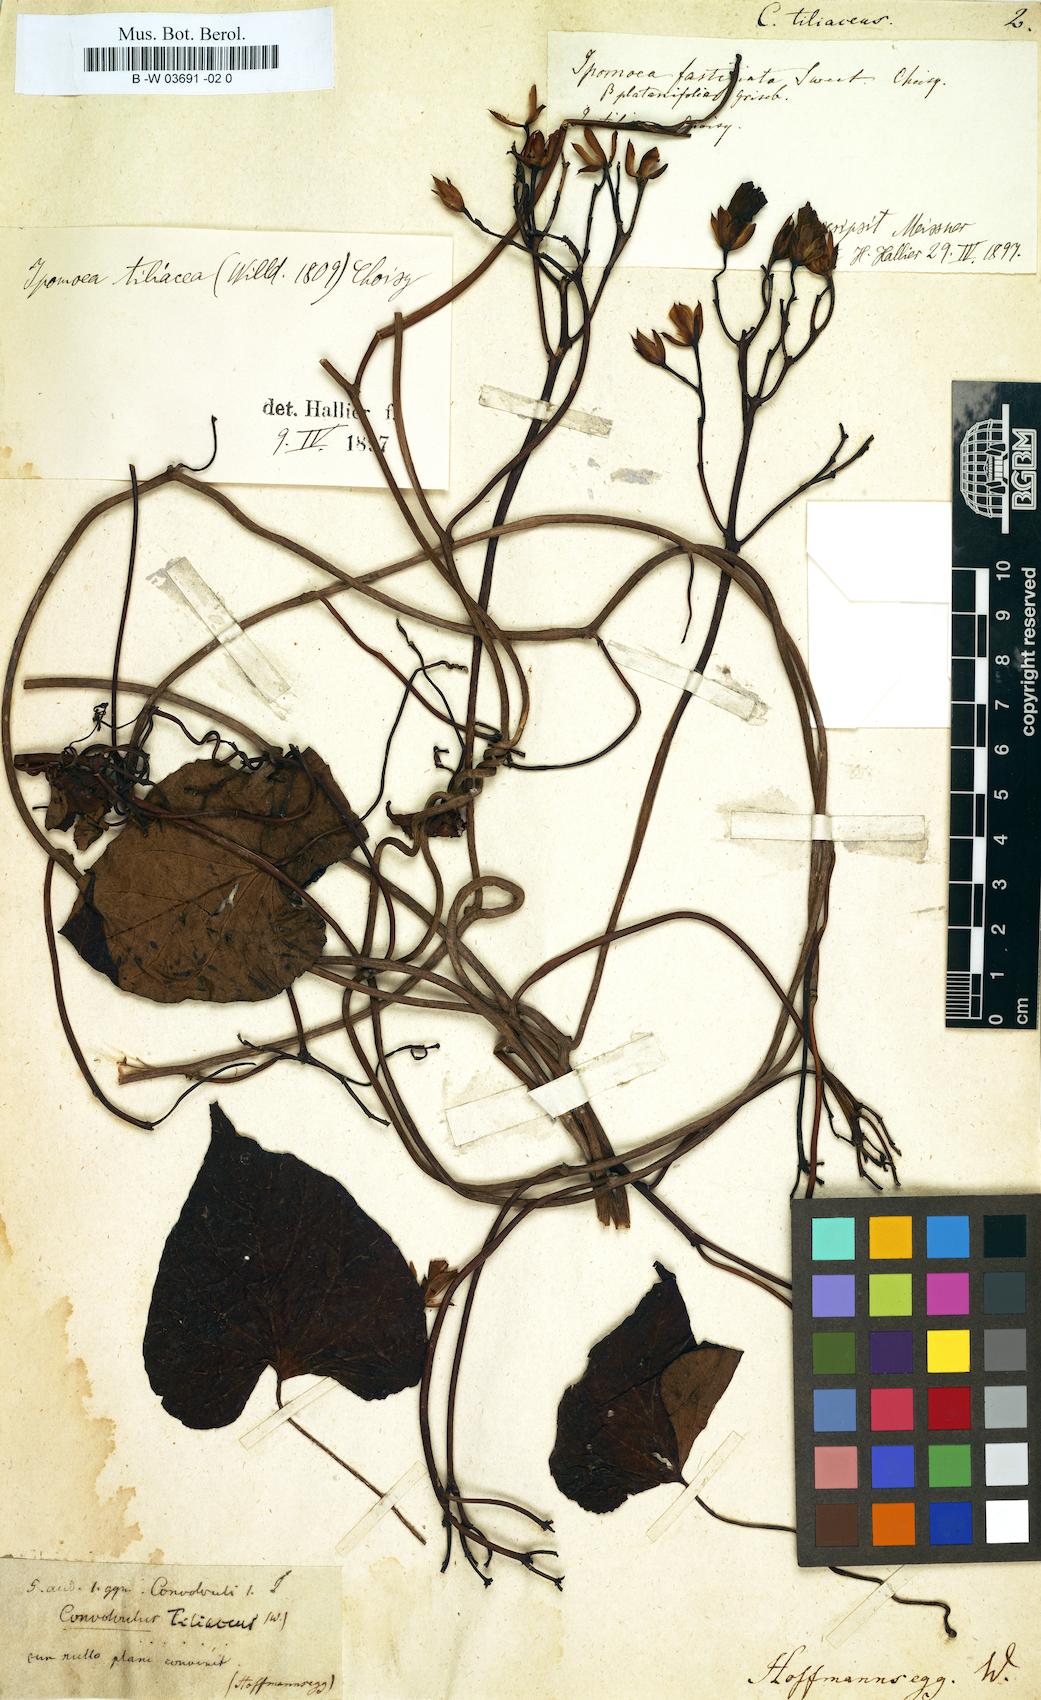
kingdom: Plantae
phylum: Tracheophyta
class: Magnoliopsida
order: Solanales
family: Convolvulaceae
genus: Ipomoea
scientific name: Ipomoea tiliacea
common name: Wild potato vine
